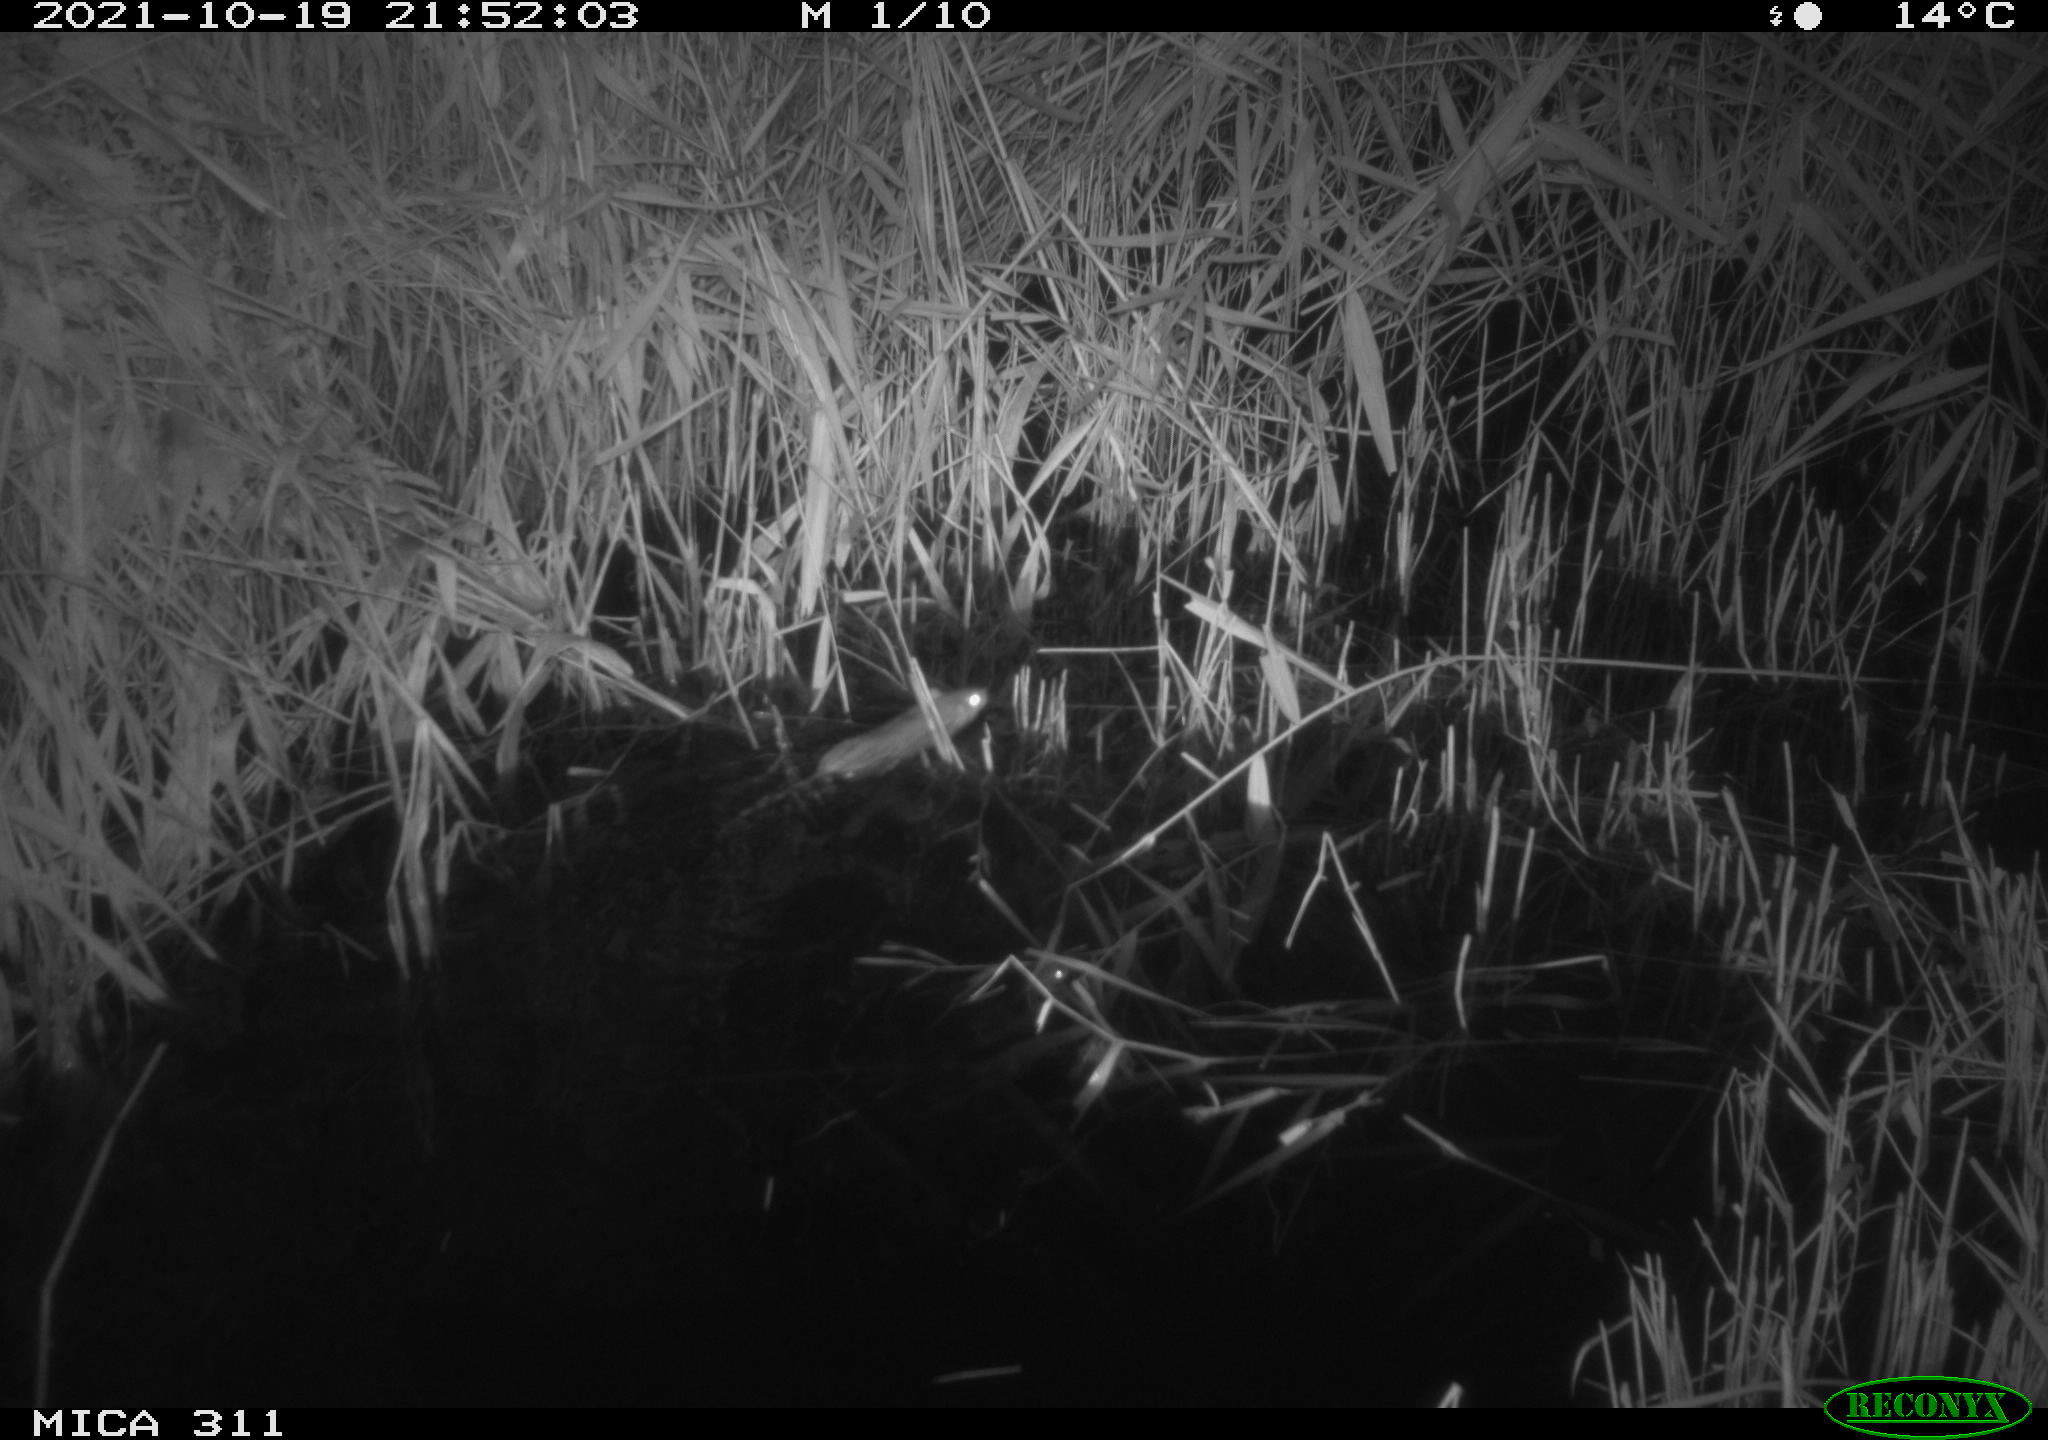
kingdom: Animalia
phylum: Chordata
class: Mammalia
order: Rodentia
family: Muridae
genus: Rattus
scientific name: Rattus norvegicus
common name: Brown rat
